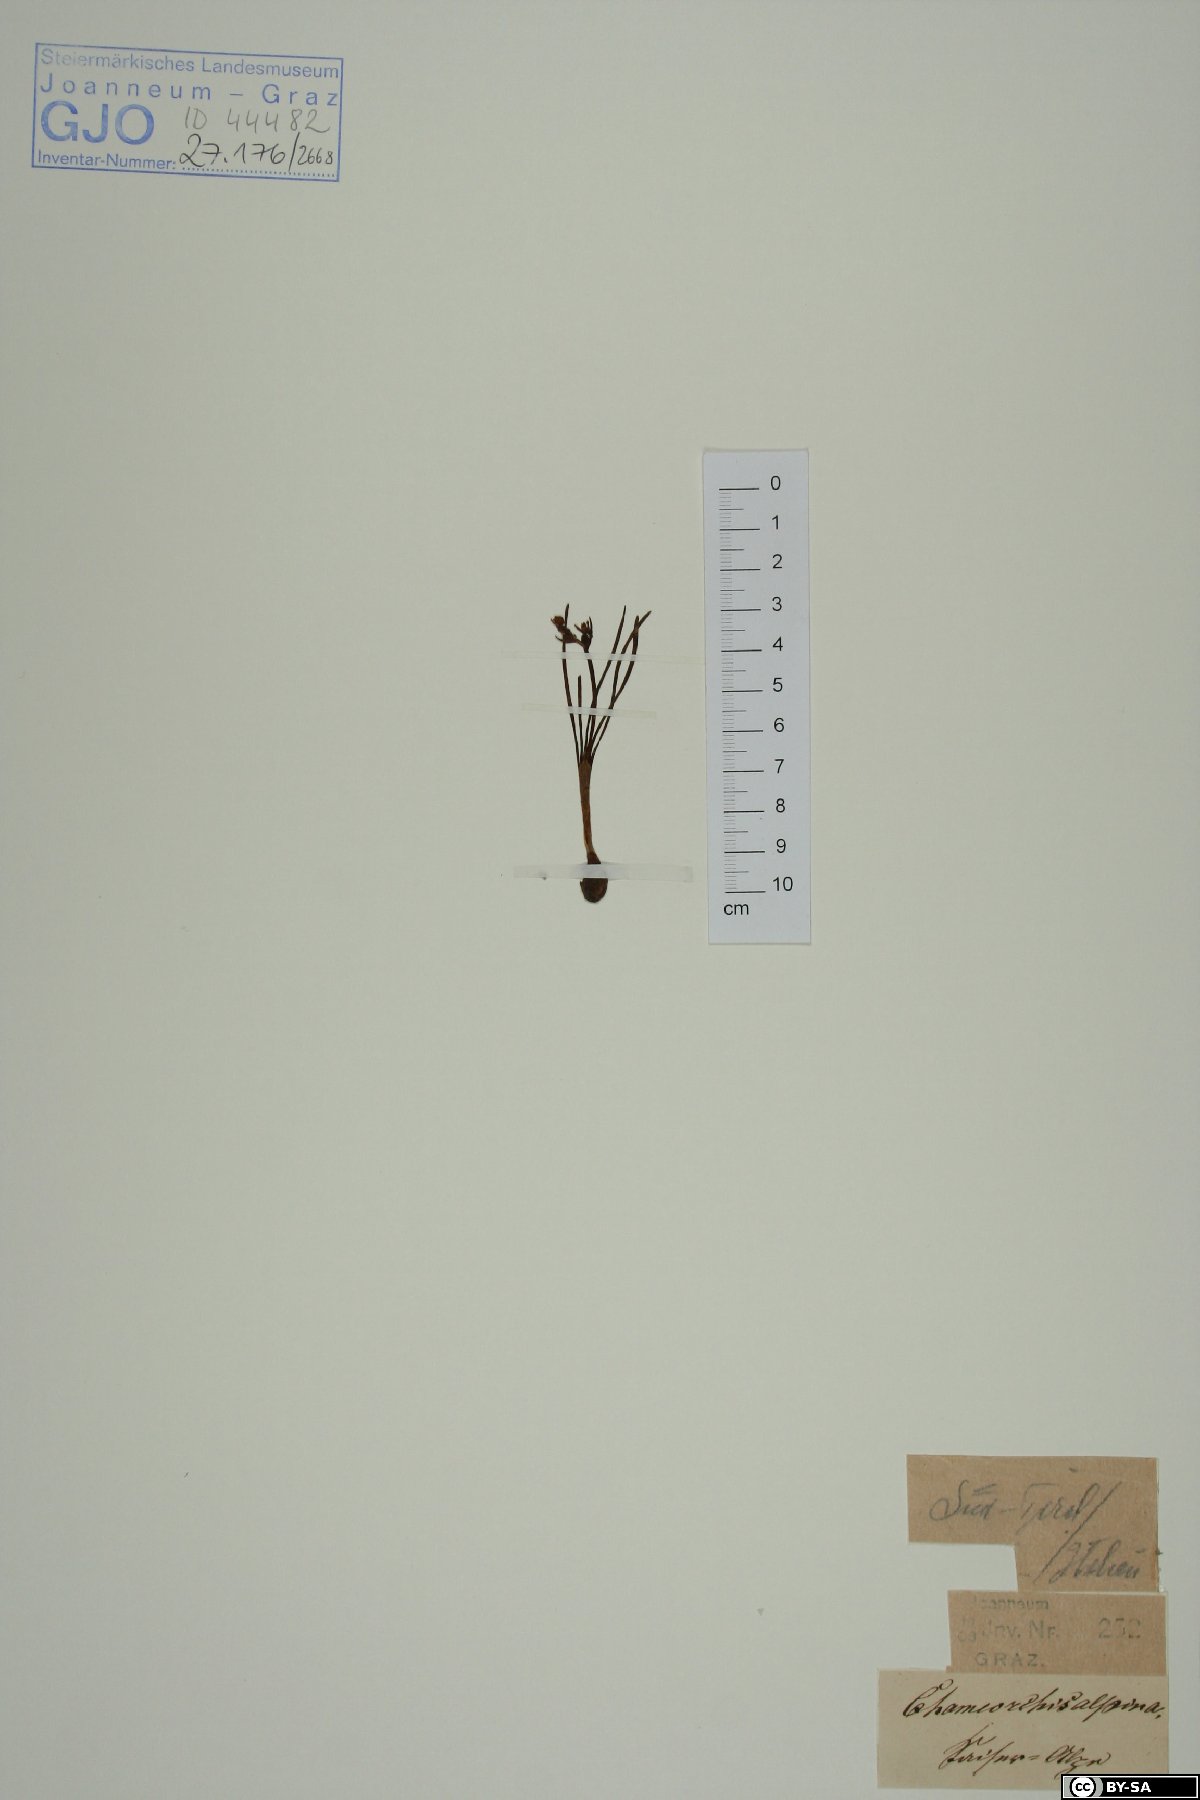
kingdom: Plantae
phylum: Tracheophyta
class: Liliopsida
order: Asparagales
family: Orchidaceae
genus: Chamorchis
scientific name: Chamorchis alpina
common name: Alpine chamorchis
